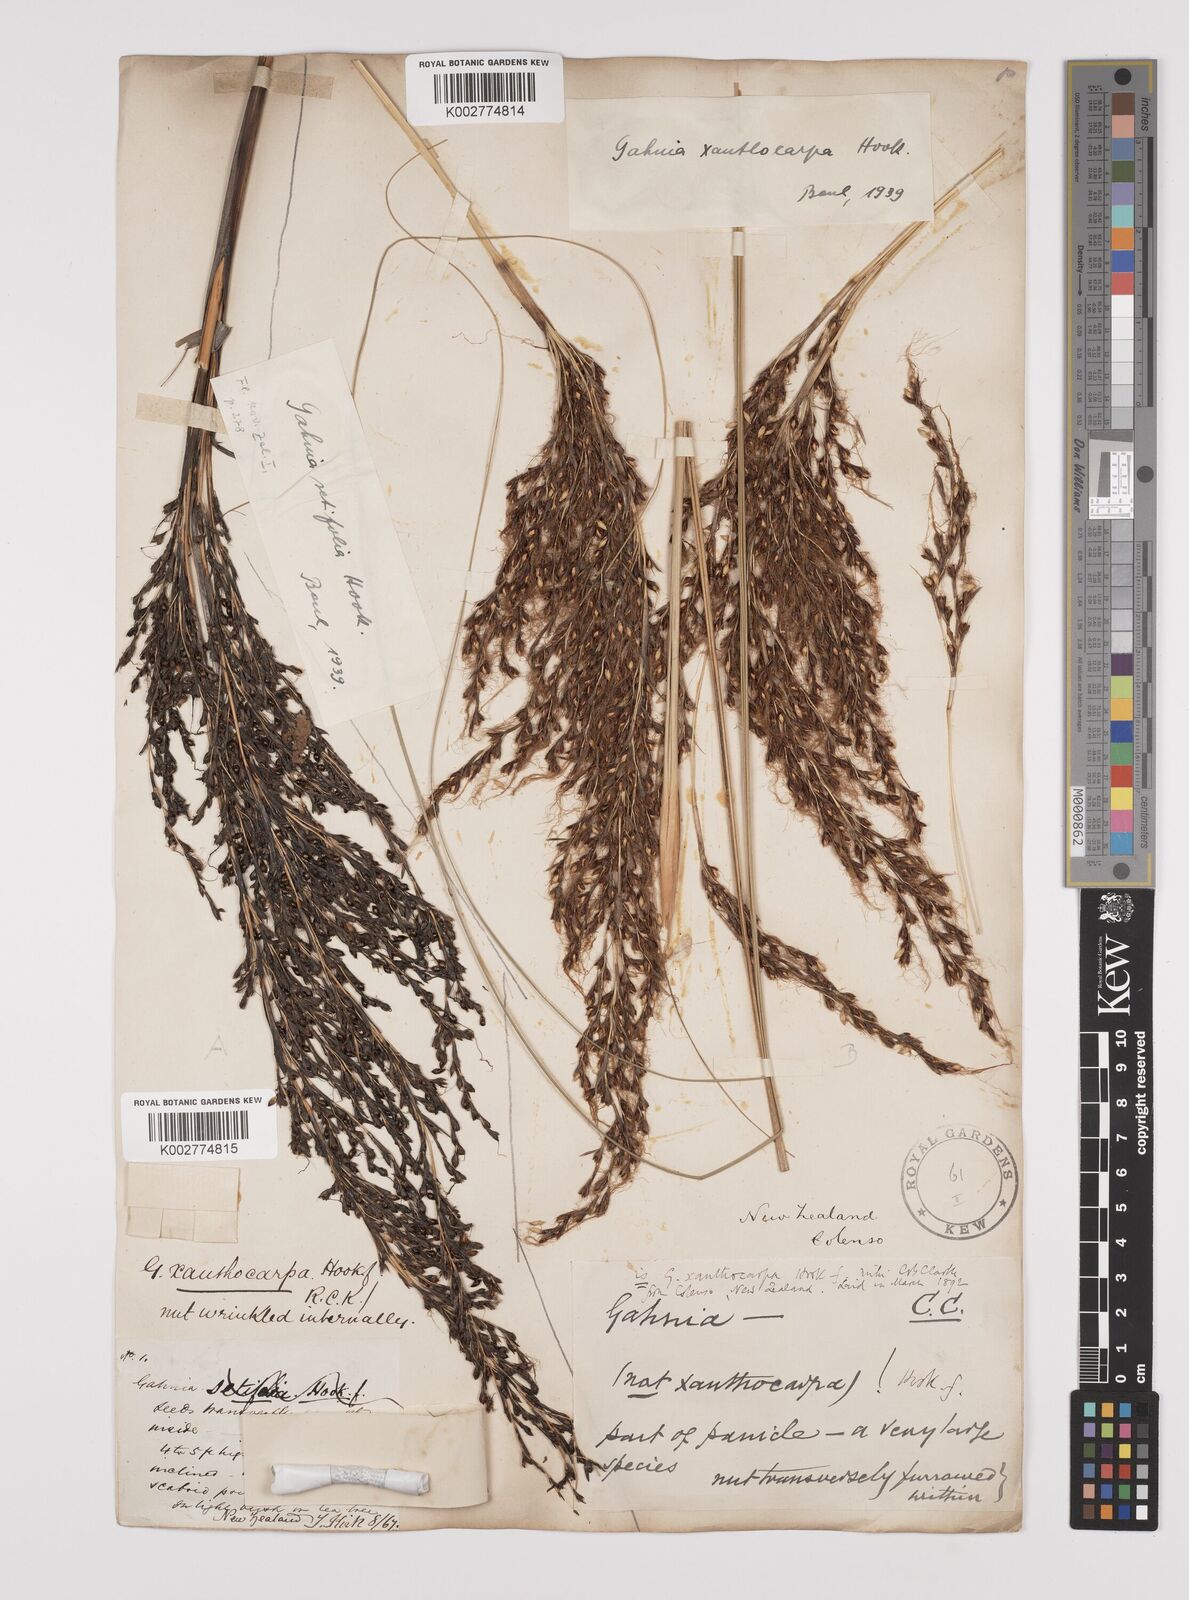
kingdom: Plantae
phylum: Tracheophyta
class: Liliopsida
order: Poales
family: Cyperaceae
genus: Gahnia
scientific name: Gahnia xanthocarpa
